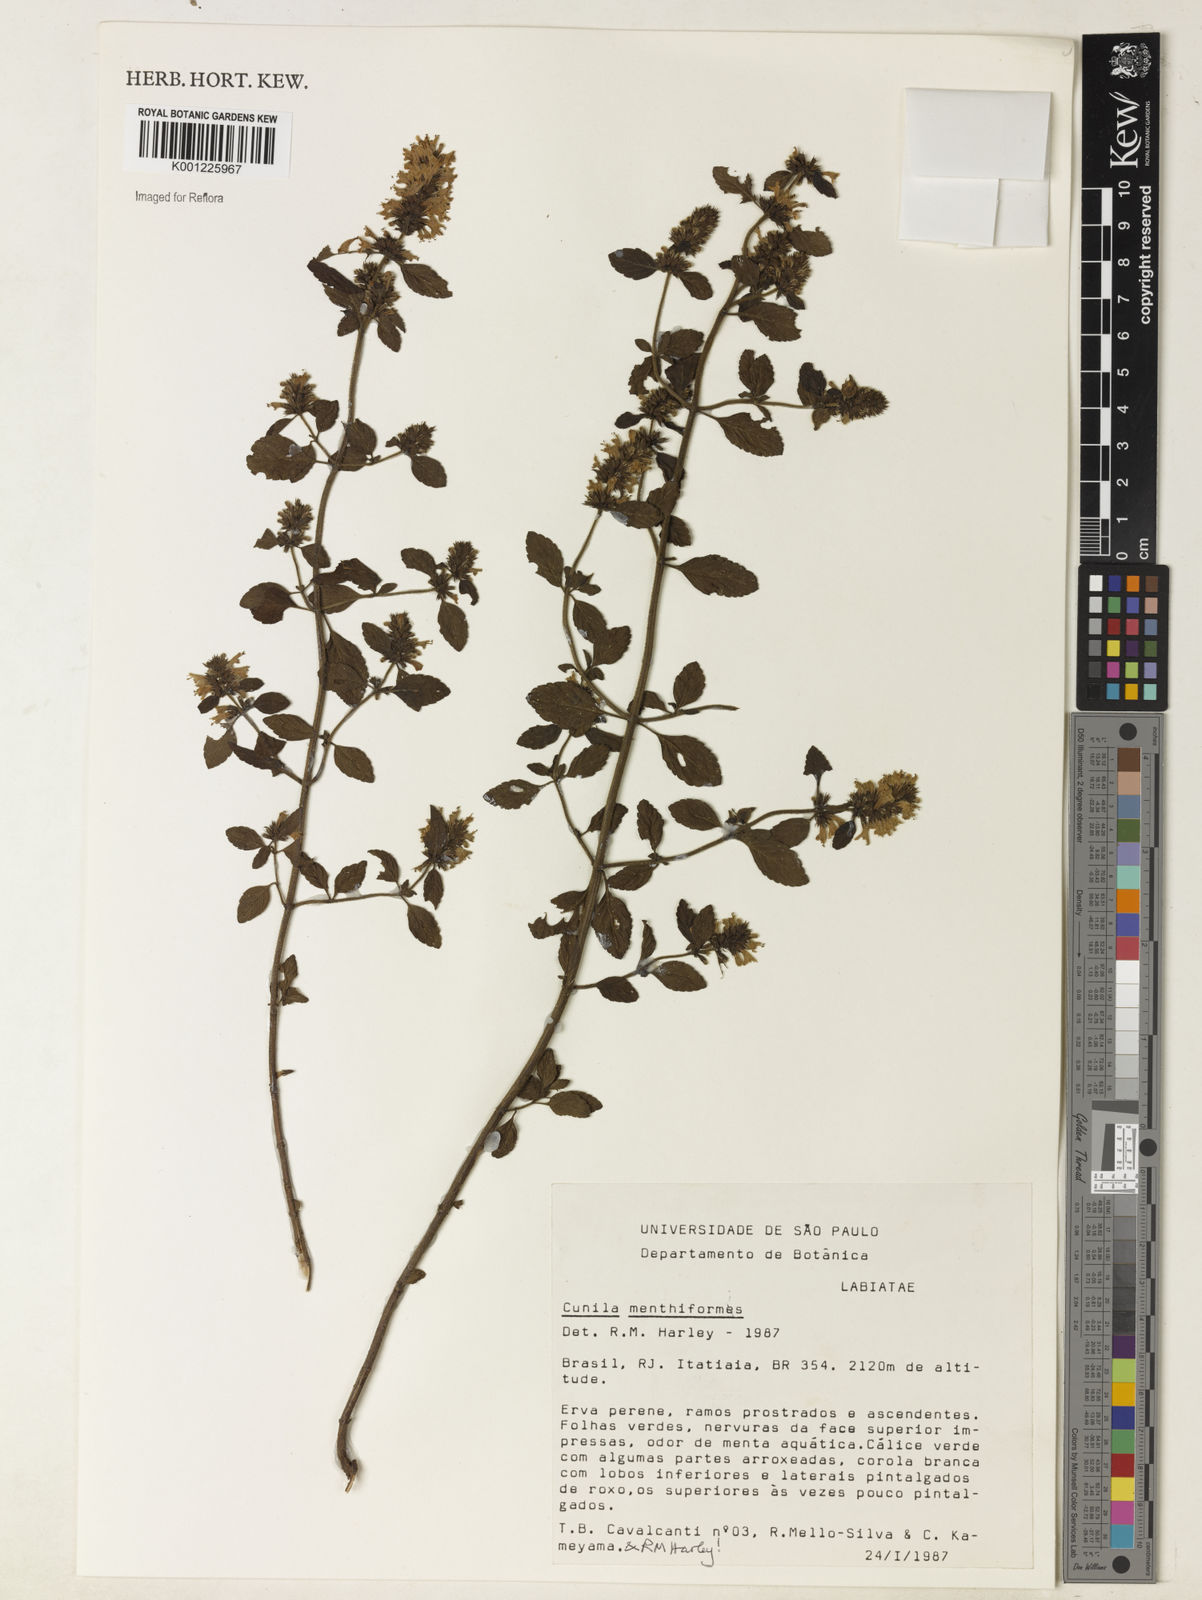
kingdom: Plantae
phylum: Tracheophyta
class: Magnoliopsida
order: Lamiales
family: Lamiaceae
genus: Cunila
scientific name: Cunila menthiformis
